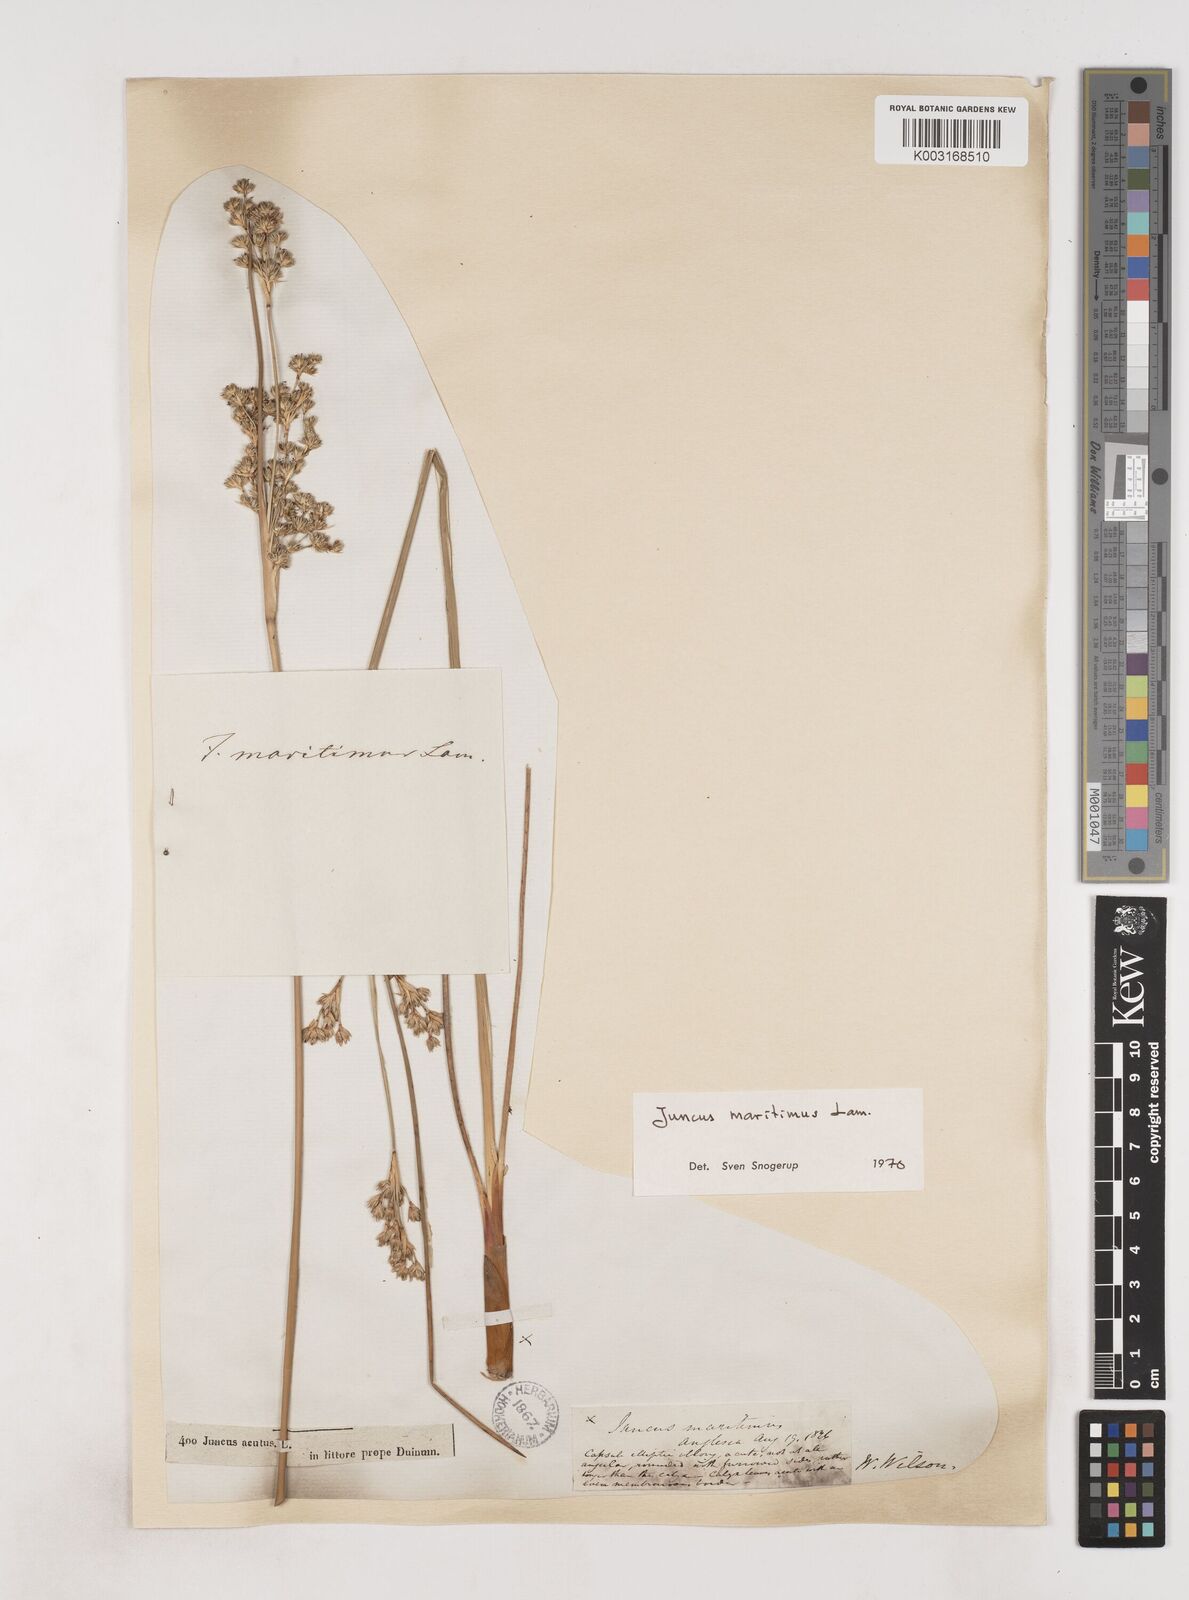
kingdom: Plantae
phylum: Tracheophyta
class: Liliopsida
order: Poales
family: Juncaceae
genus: Juncus
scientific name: Juncus maritimus
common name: Sea rush
